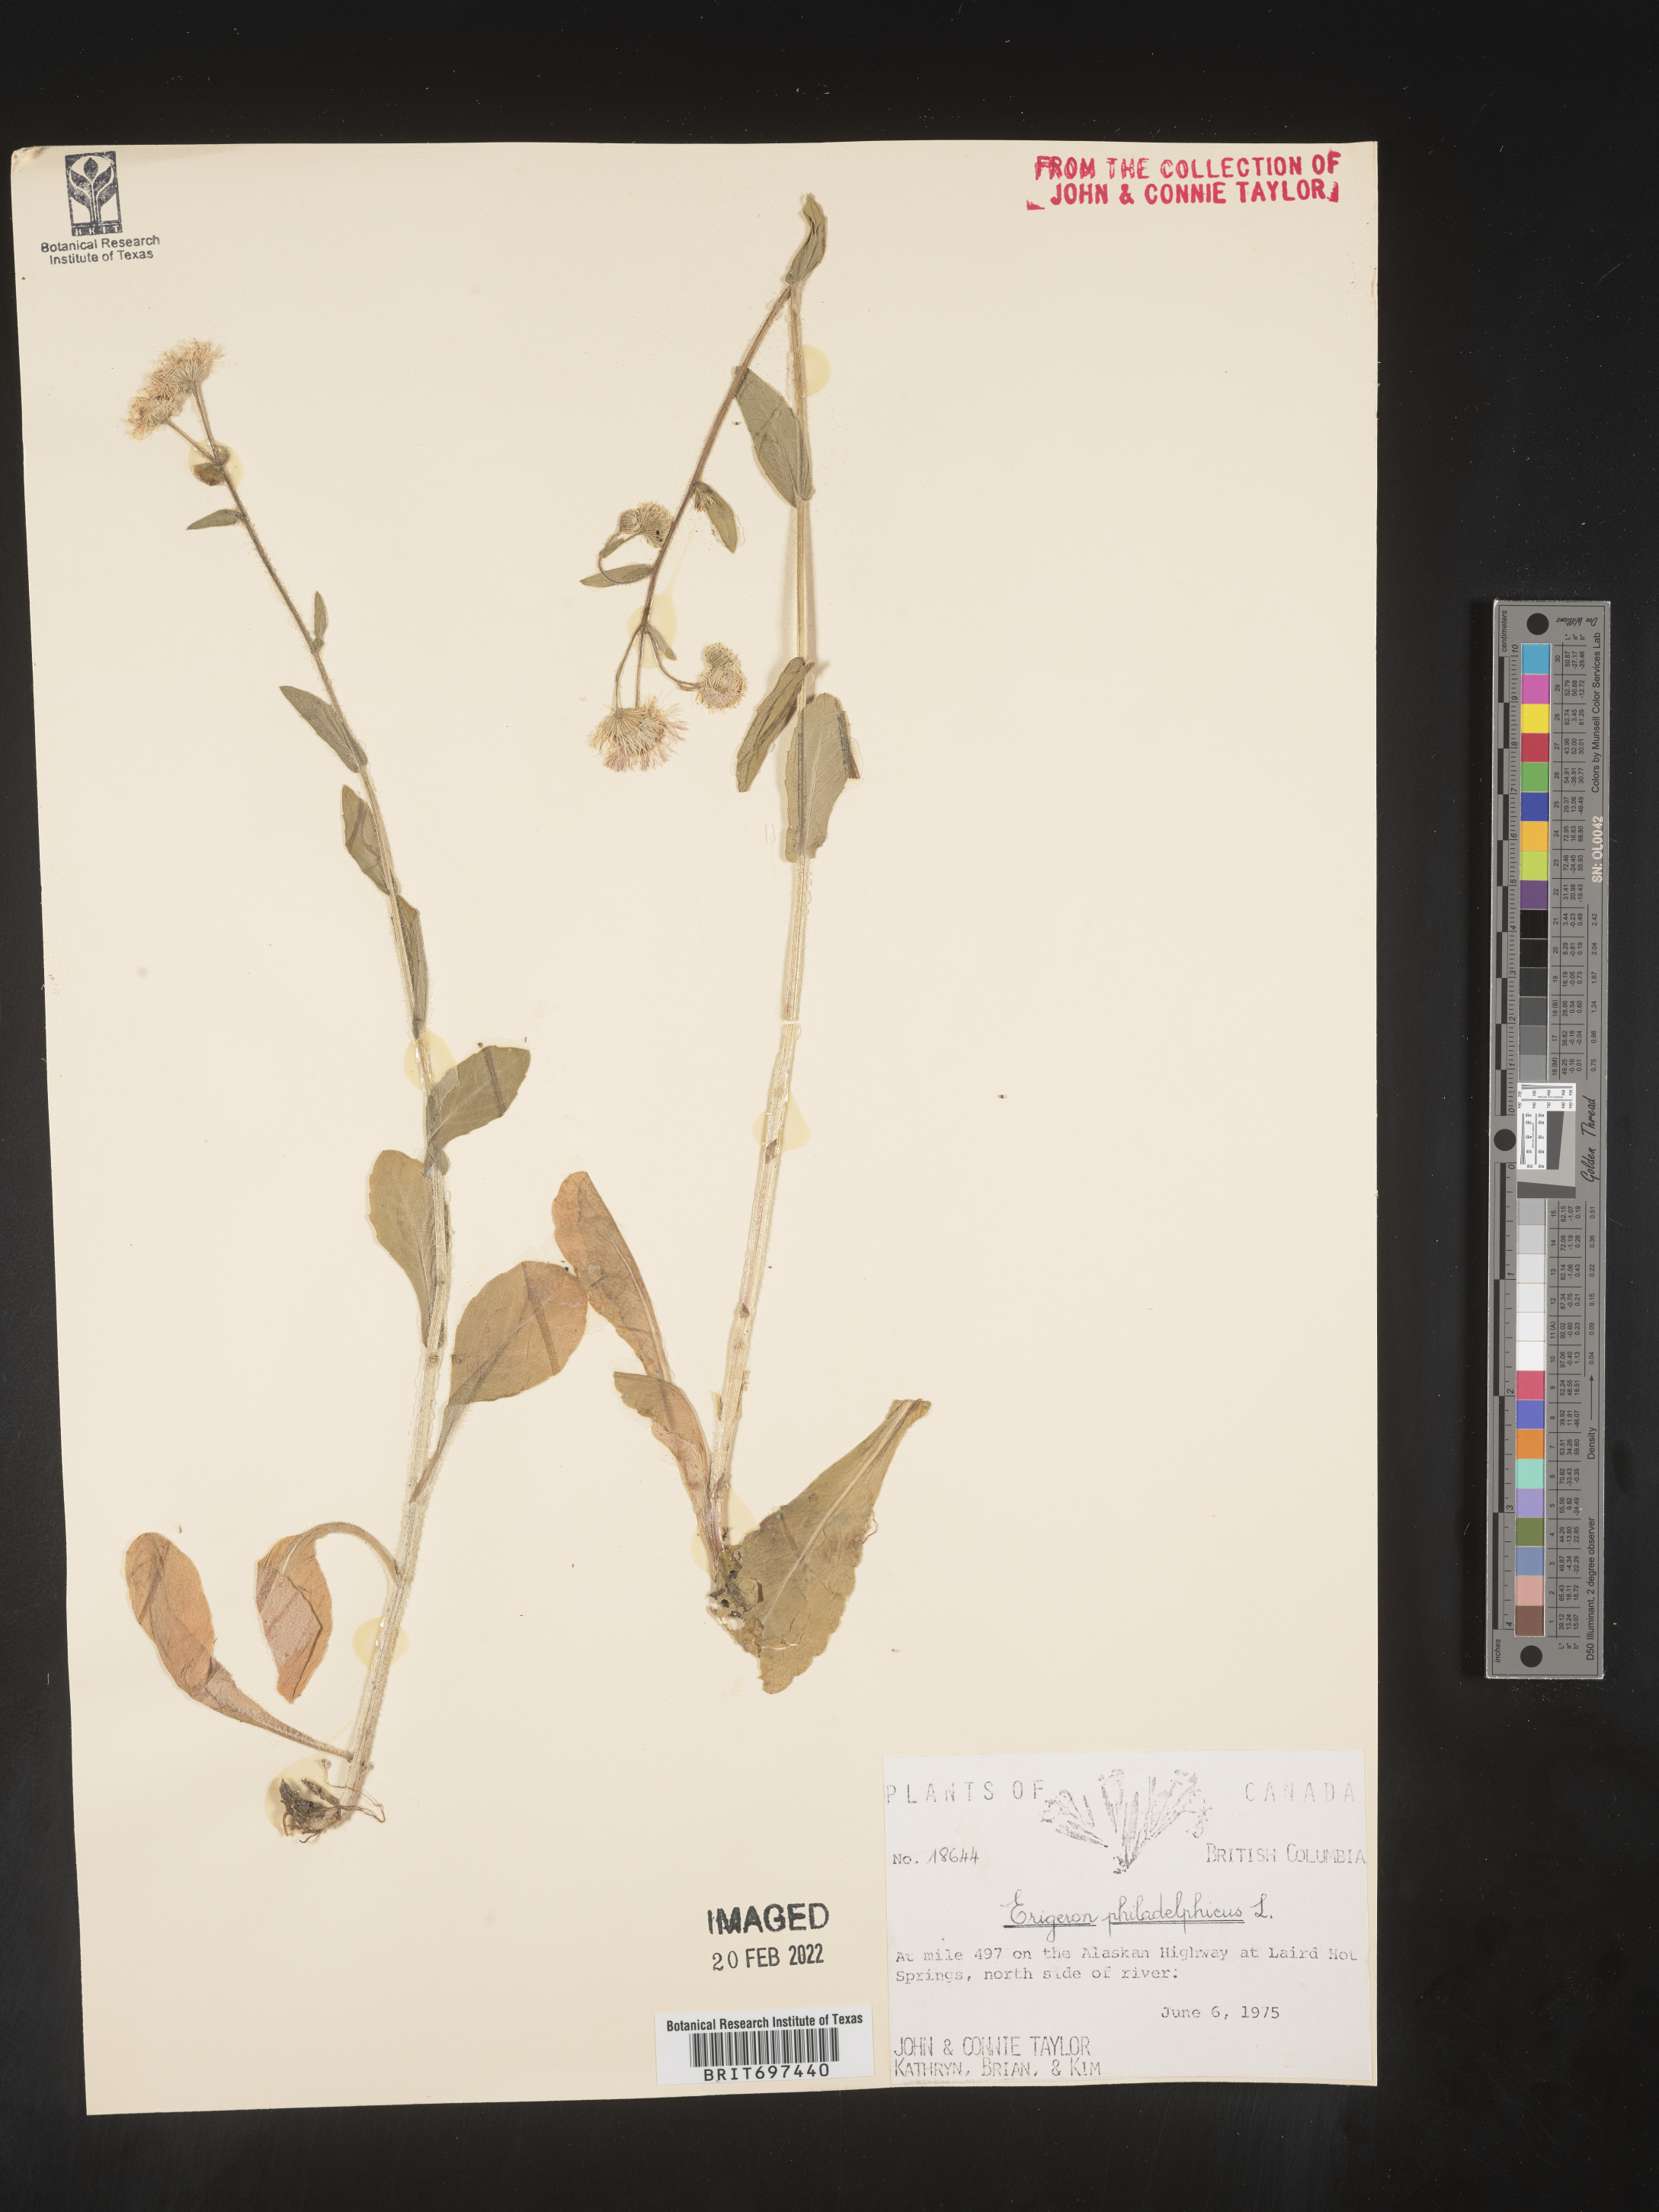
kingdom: Plantae
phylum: Tracheophyta
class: Magnoliopsida
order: Asterales
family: Asteraceae
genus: Erigeron
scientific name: Erigeron philadelphicus
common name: Robin's-plantain
